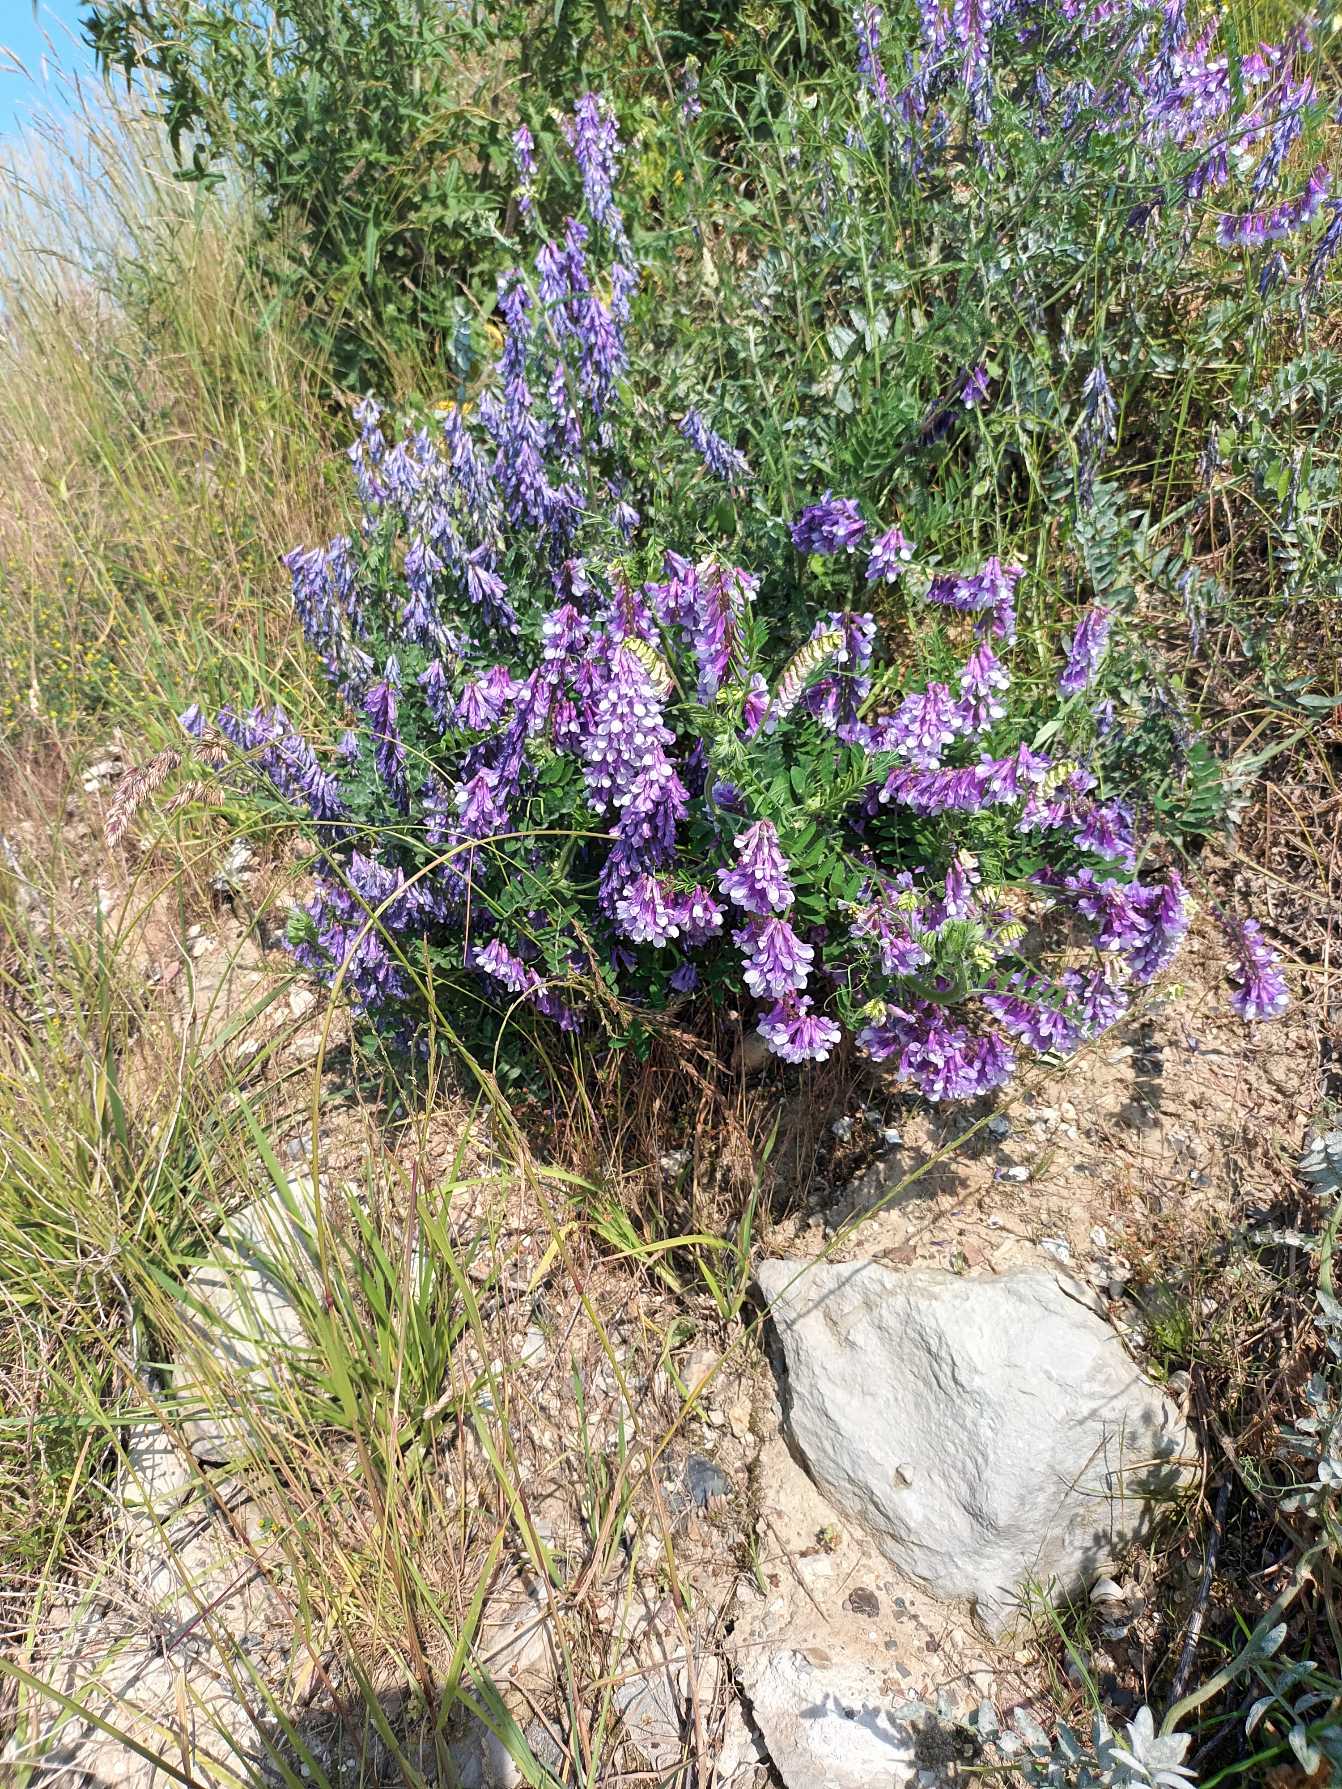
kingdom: Plantae
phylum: Tracheophyta
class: Magnoliopsida
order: Fabales
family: Fabaceae
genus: Vicia
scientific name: Vicia villosa
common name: Sand-vikke
